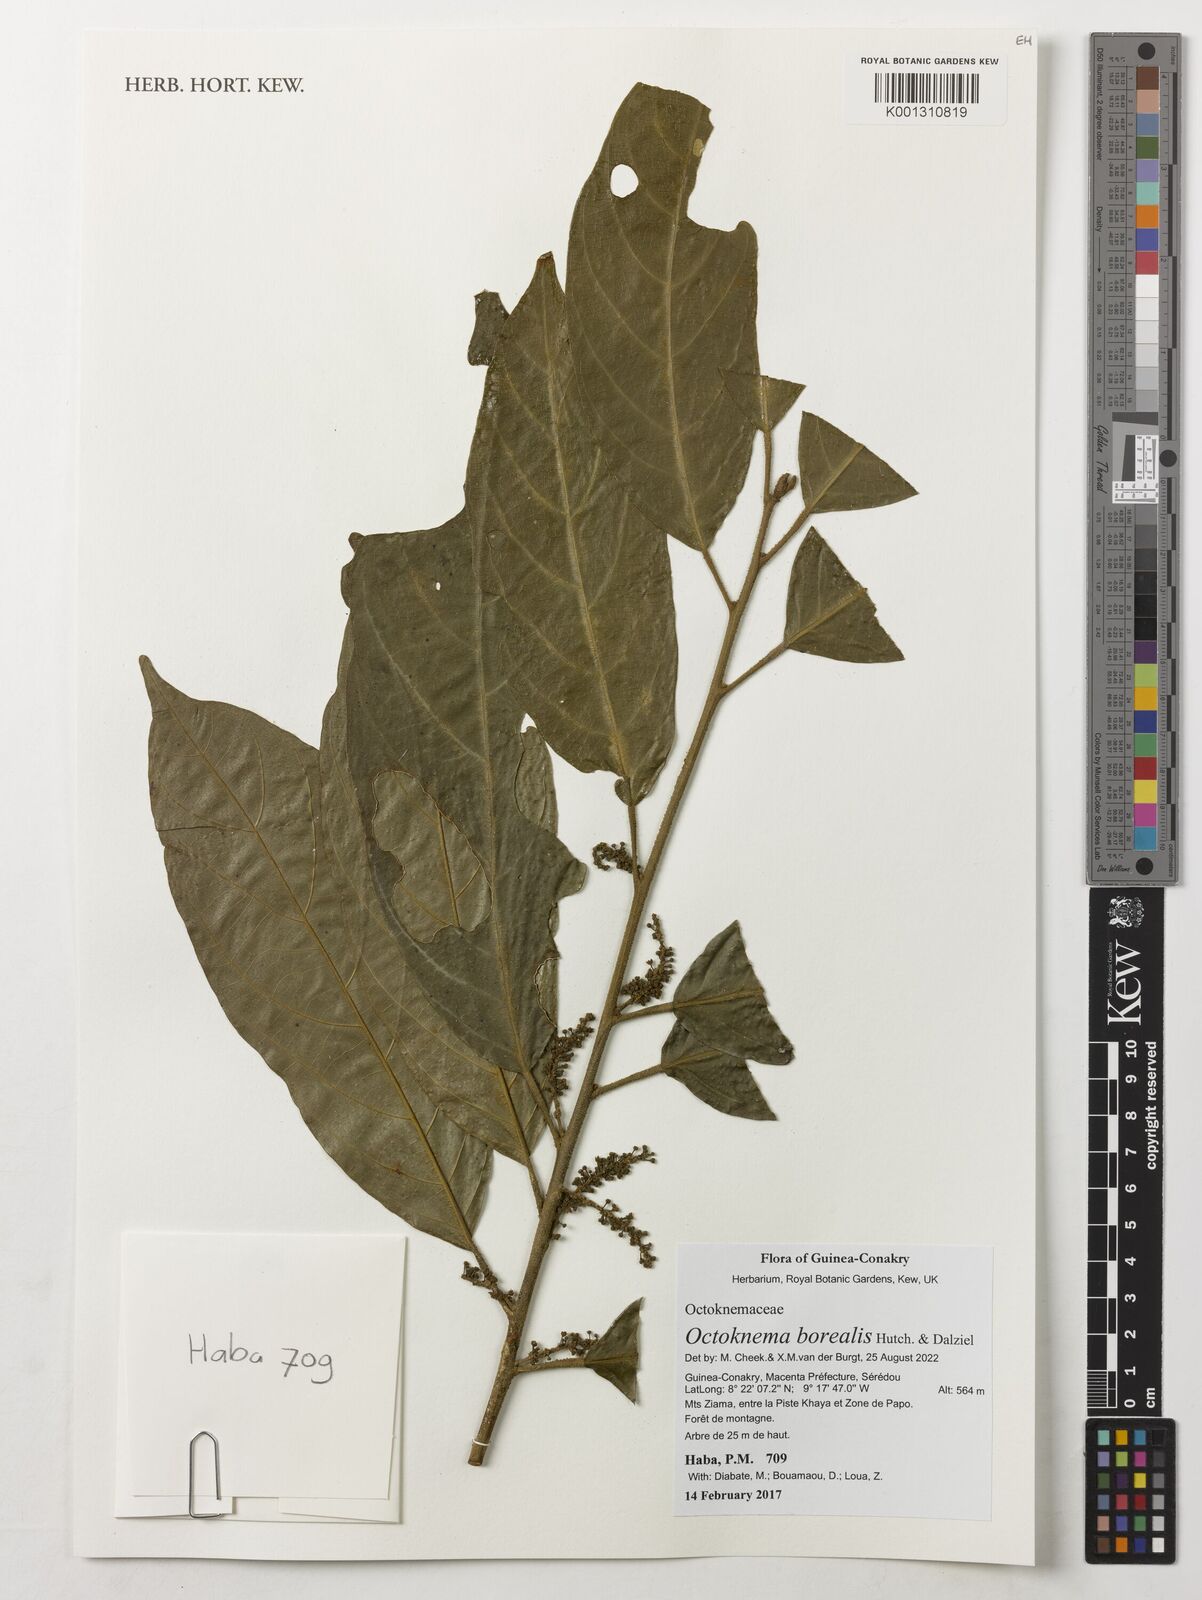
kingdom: Plantae
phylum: Tracheophyta
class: Magnoliopsida
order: Santalales
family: Octoknemaceae
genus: Octoknema
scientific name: Octoknema borealis
